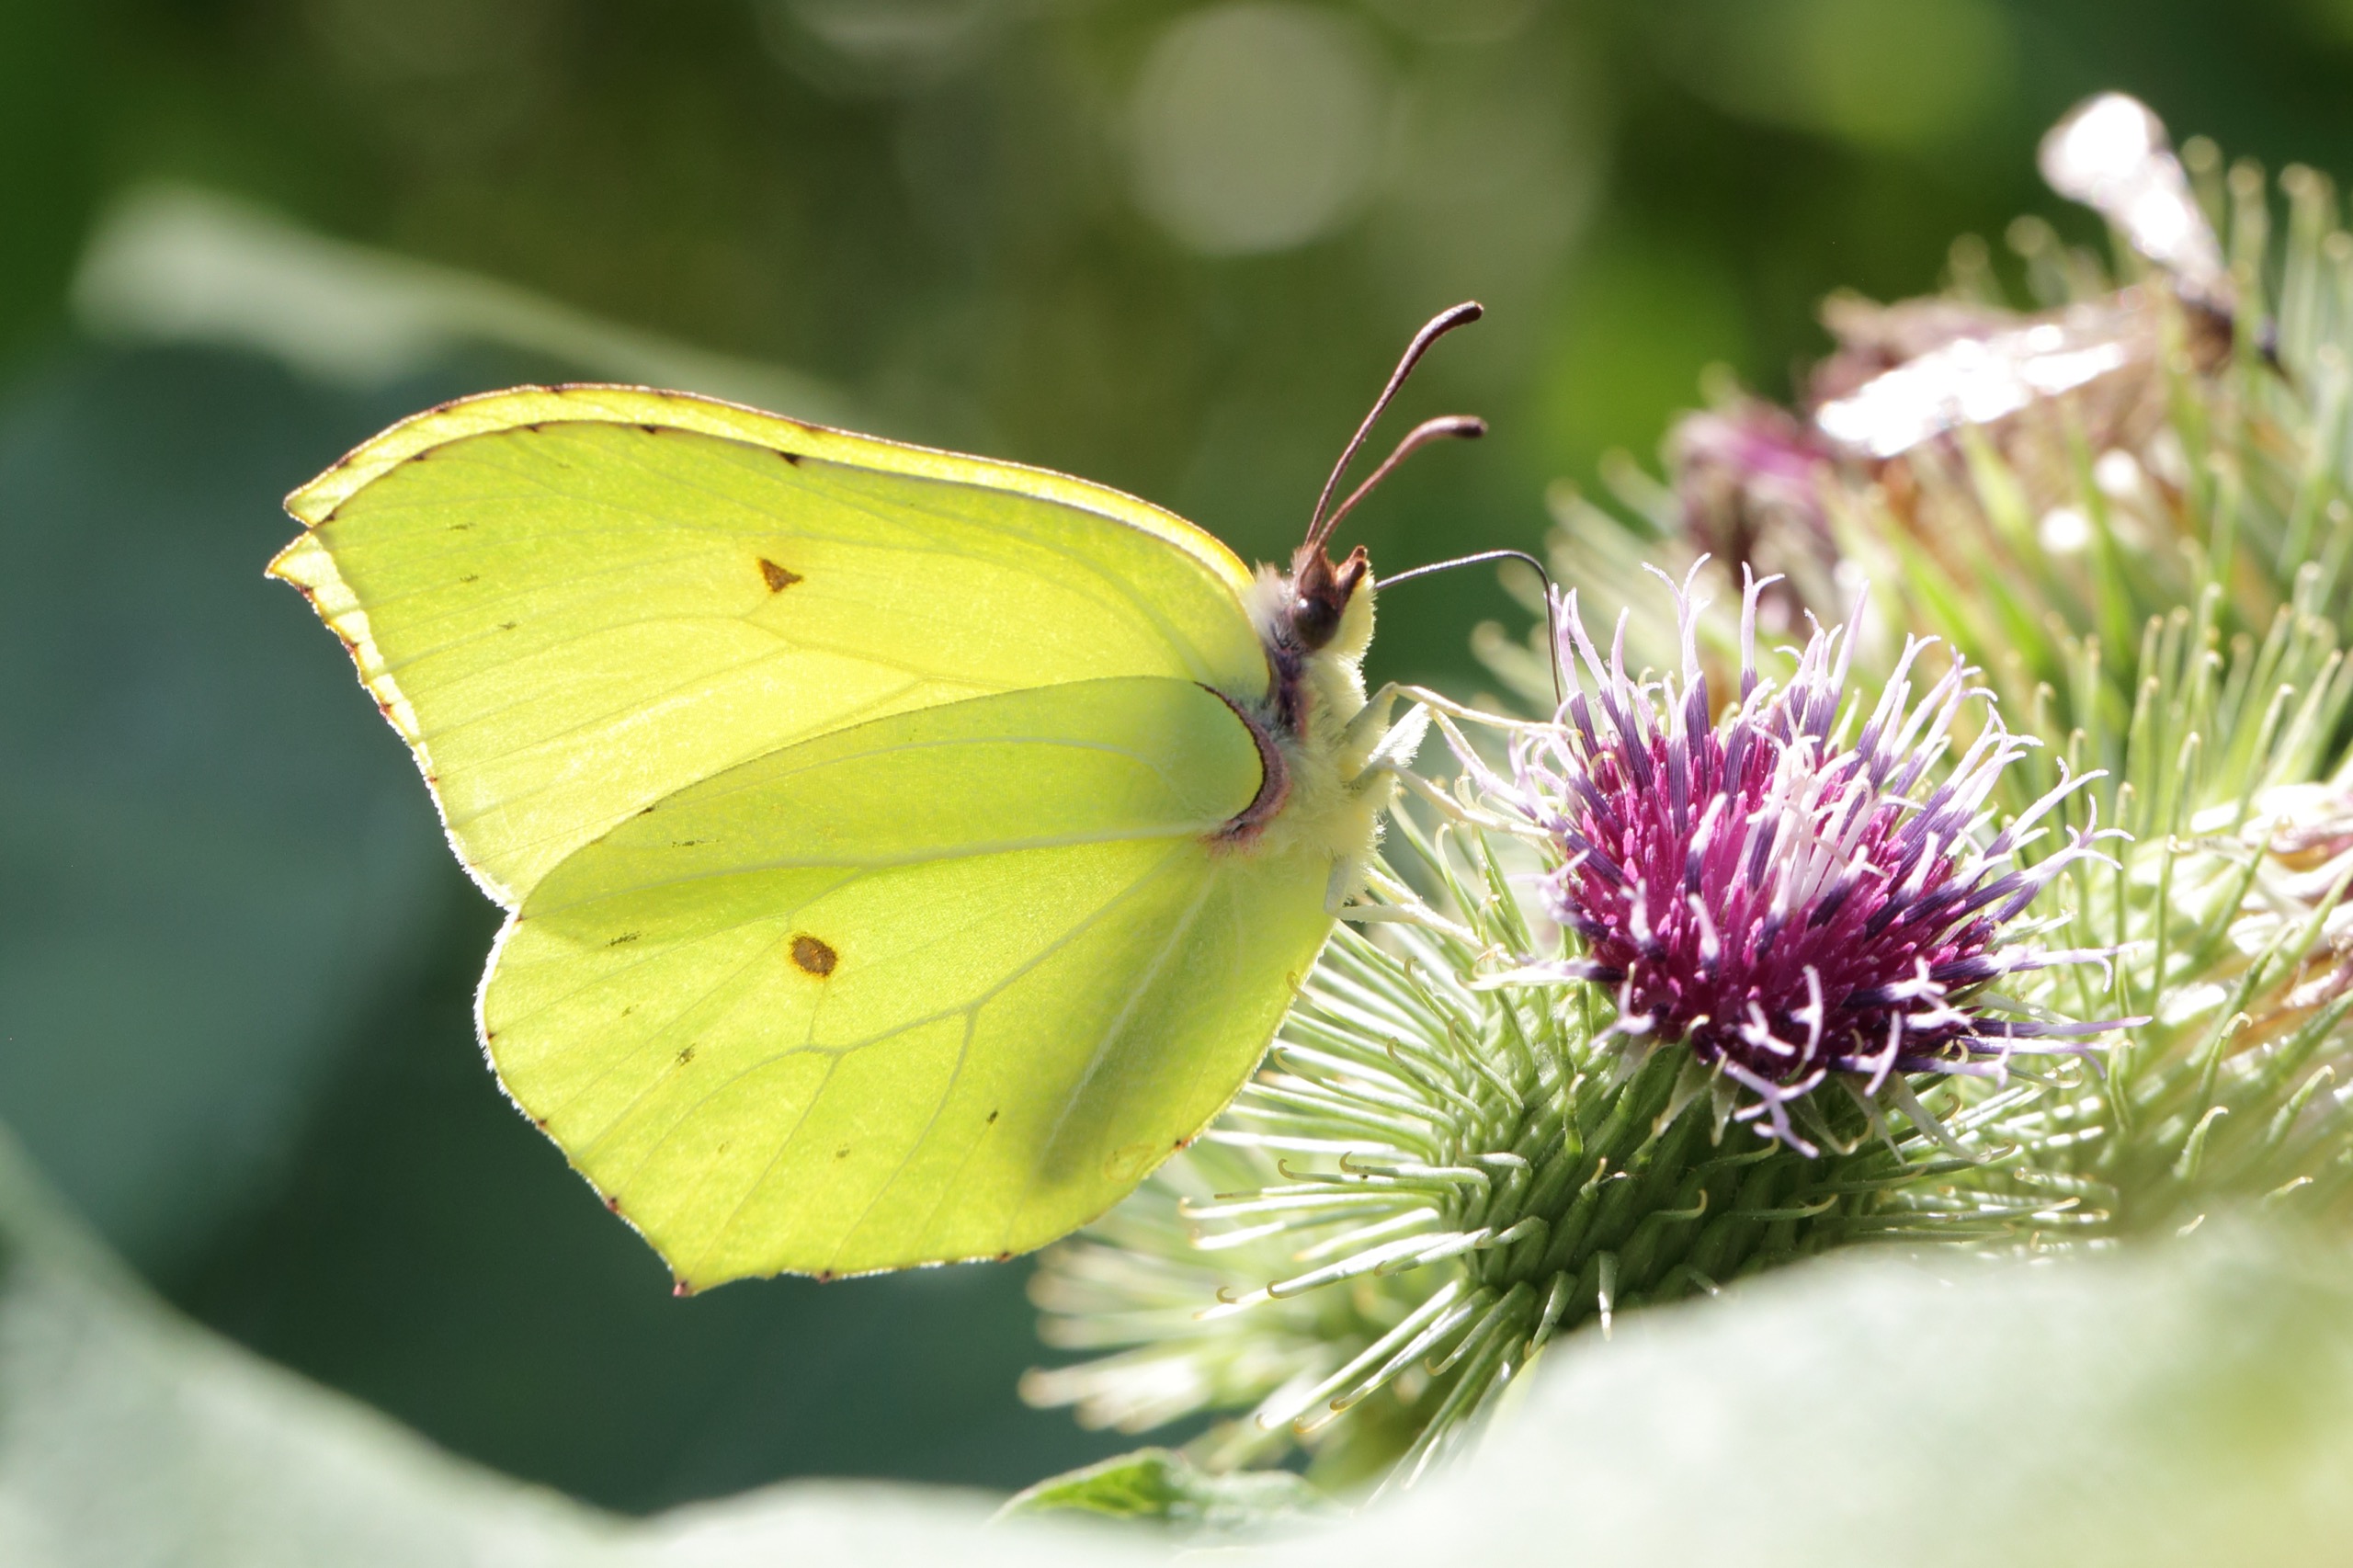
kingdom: Animalia
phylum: Arthropoda
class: Insecta
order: Lepidoptera
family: Pieridae
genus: Gonepteryx
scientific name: Gonepteryx rhamni
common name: Citronsommerfugl
